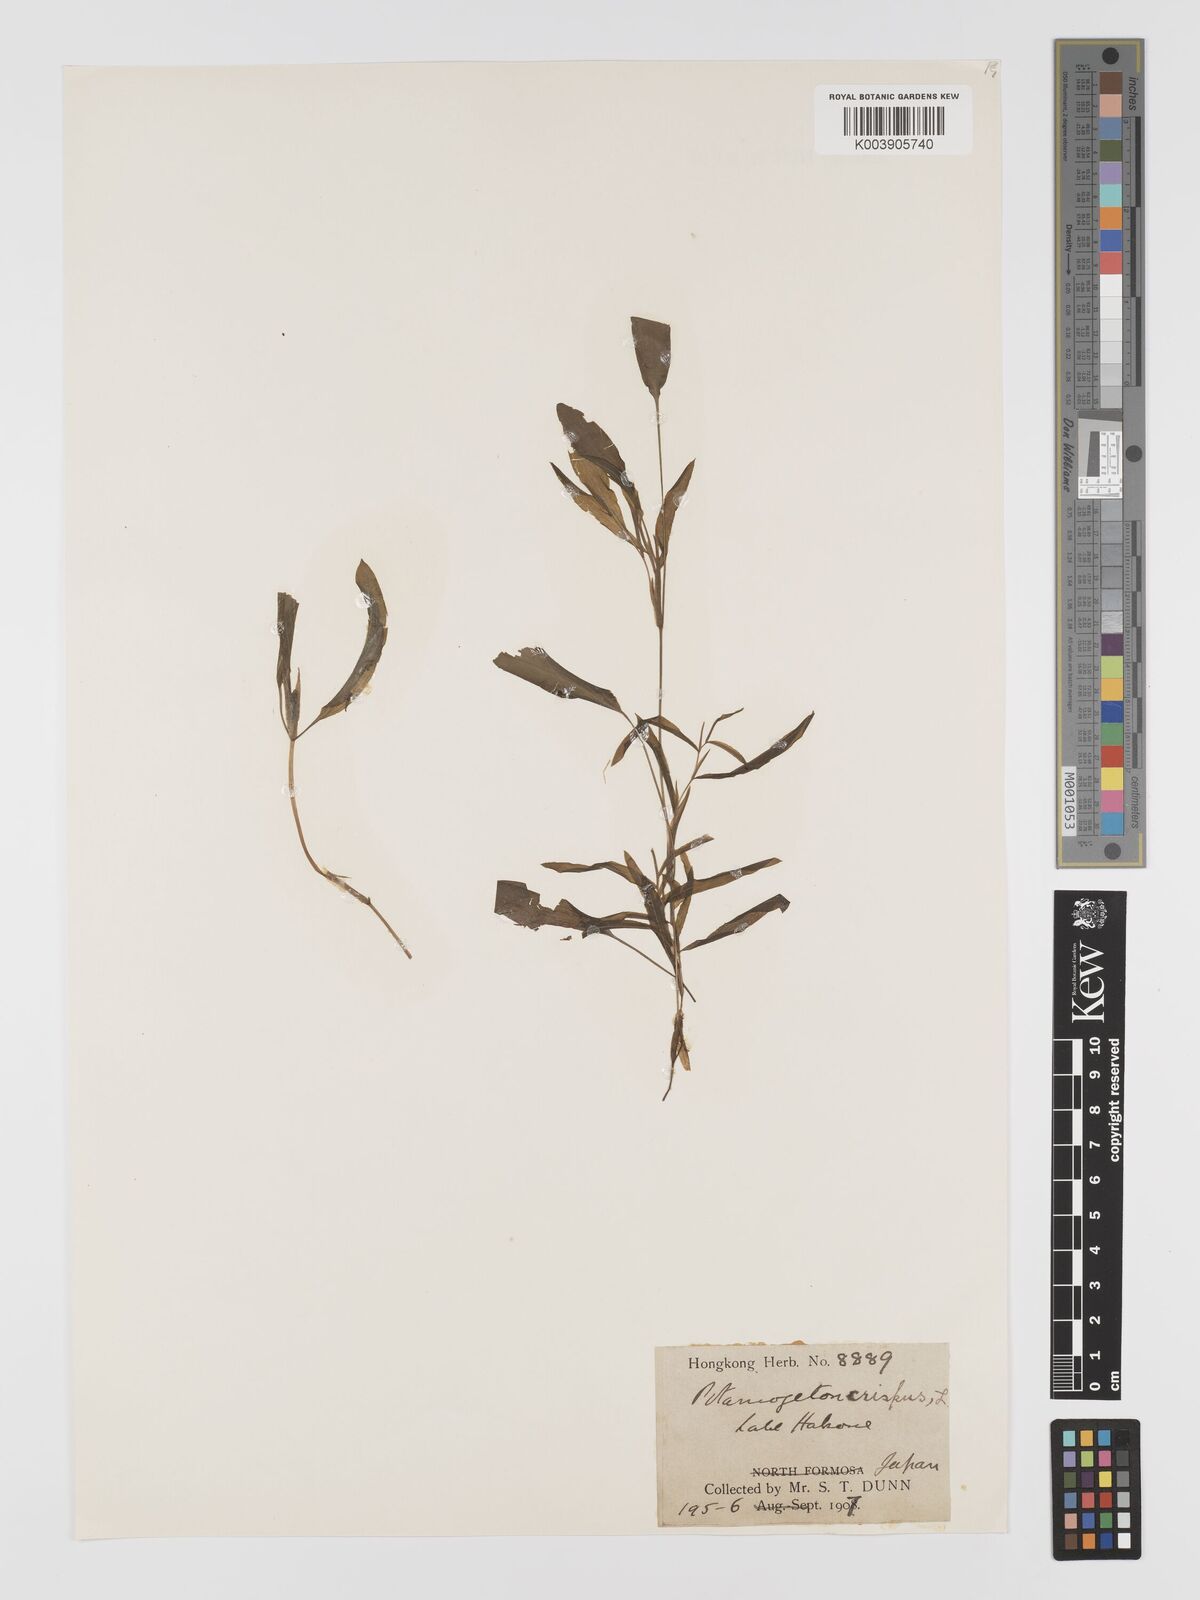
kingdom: Plantae
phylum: Tracheophyta
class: Liliopsida
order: Alismatales
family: Potamogetonaceae
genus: Potamogeton
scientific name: Potamogeton crispus
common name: Curled pondweed
